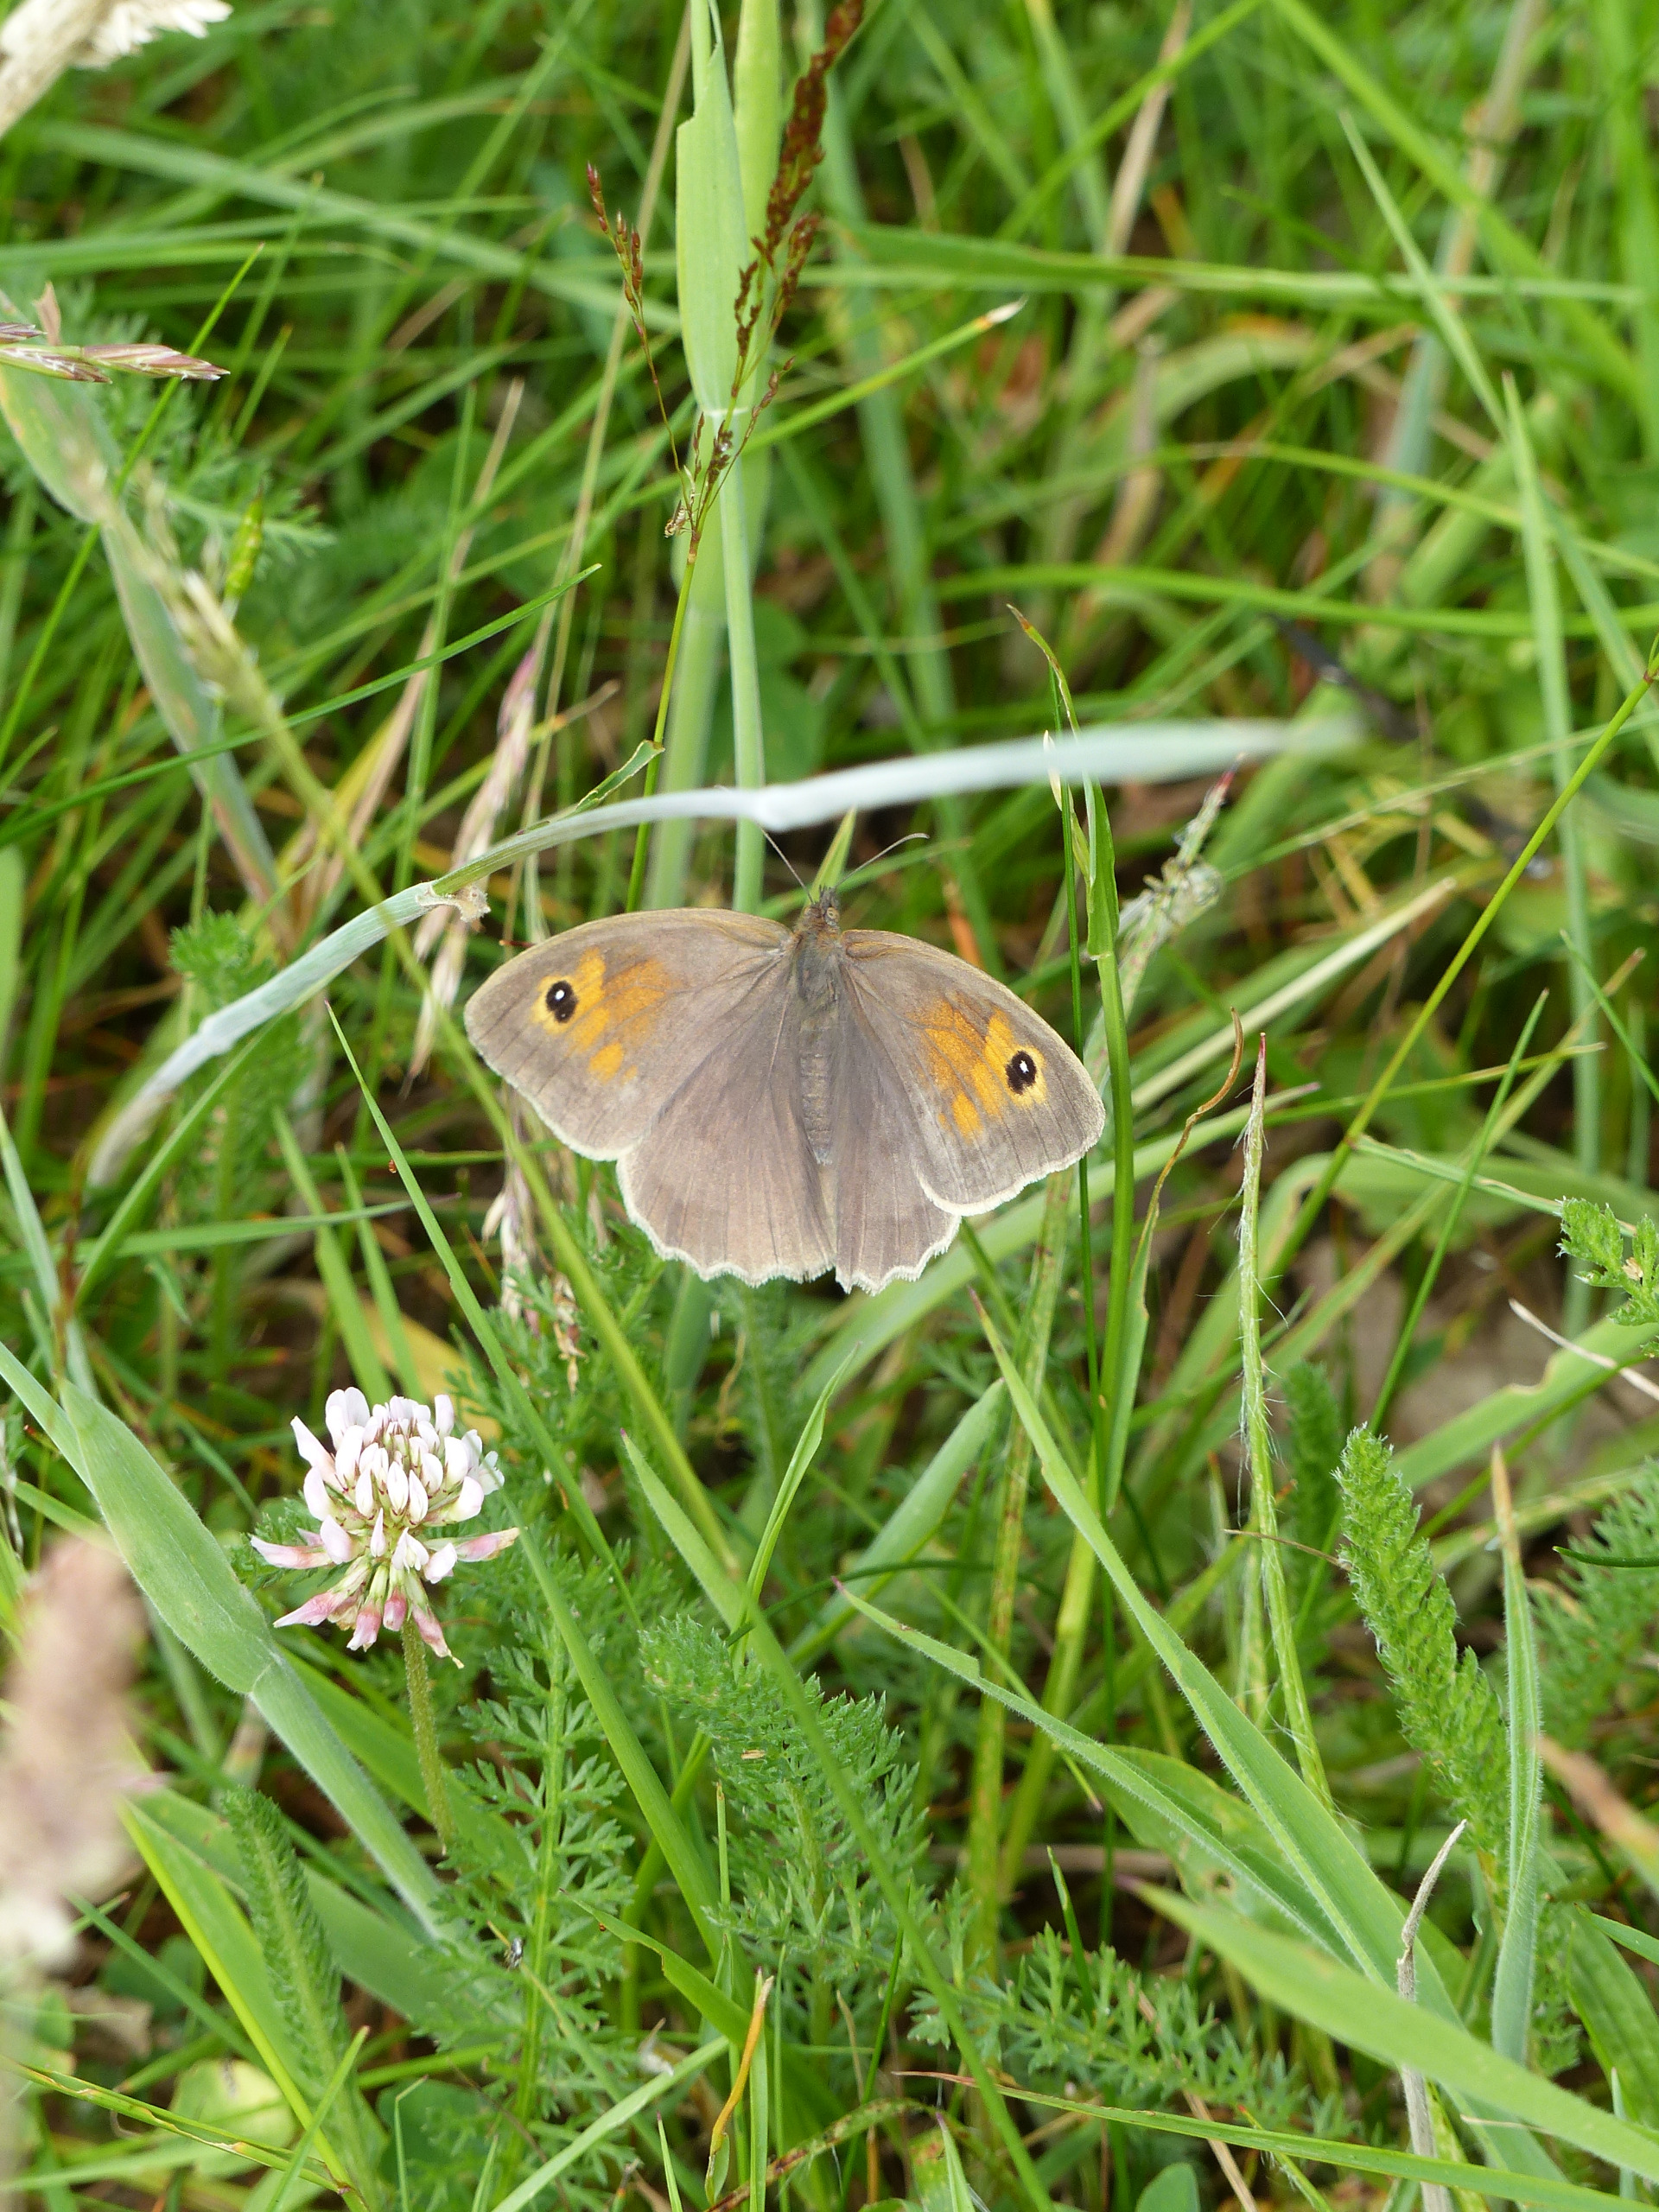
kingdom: Animalia
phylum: Arthropoda
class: Insecta
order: Lepidoptera
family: Nymphalidae
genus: Maniola
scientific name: Maniola jurtina
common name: Græsrandøje
